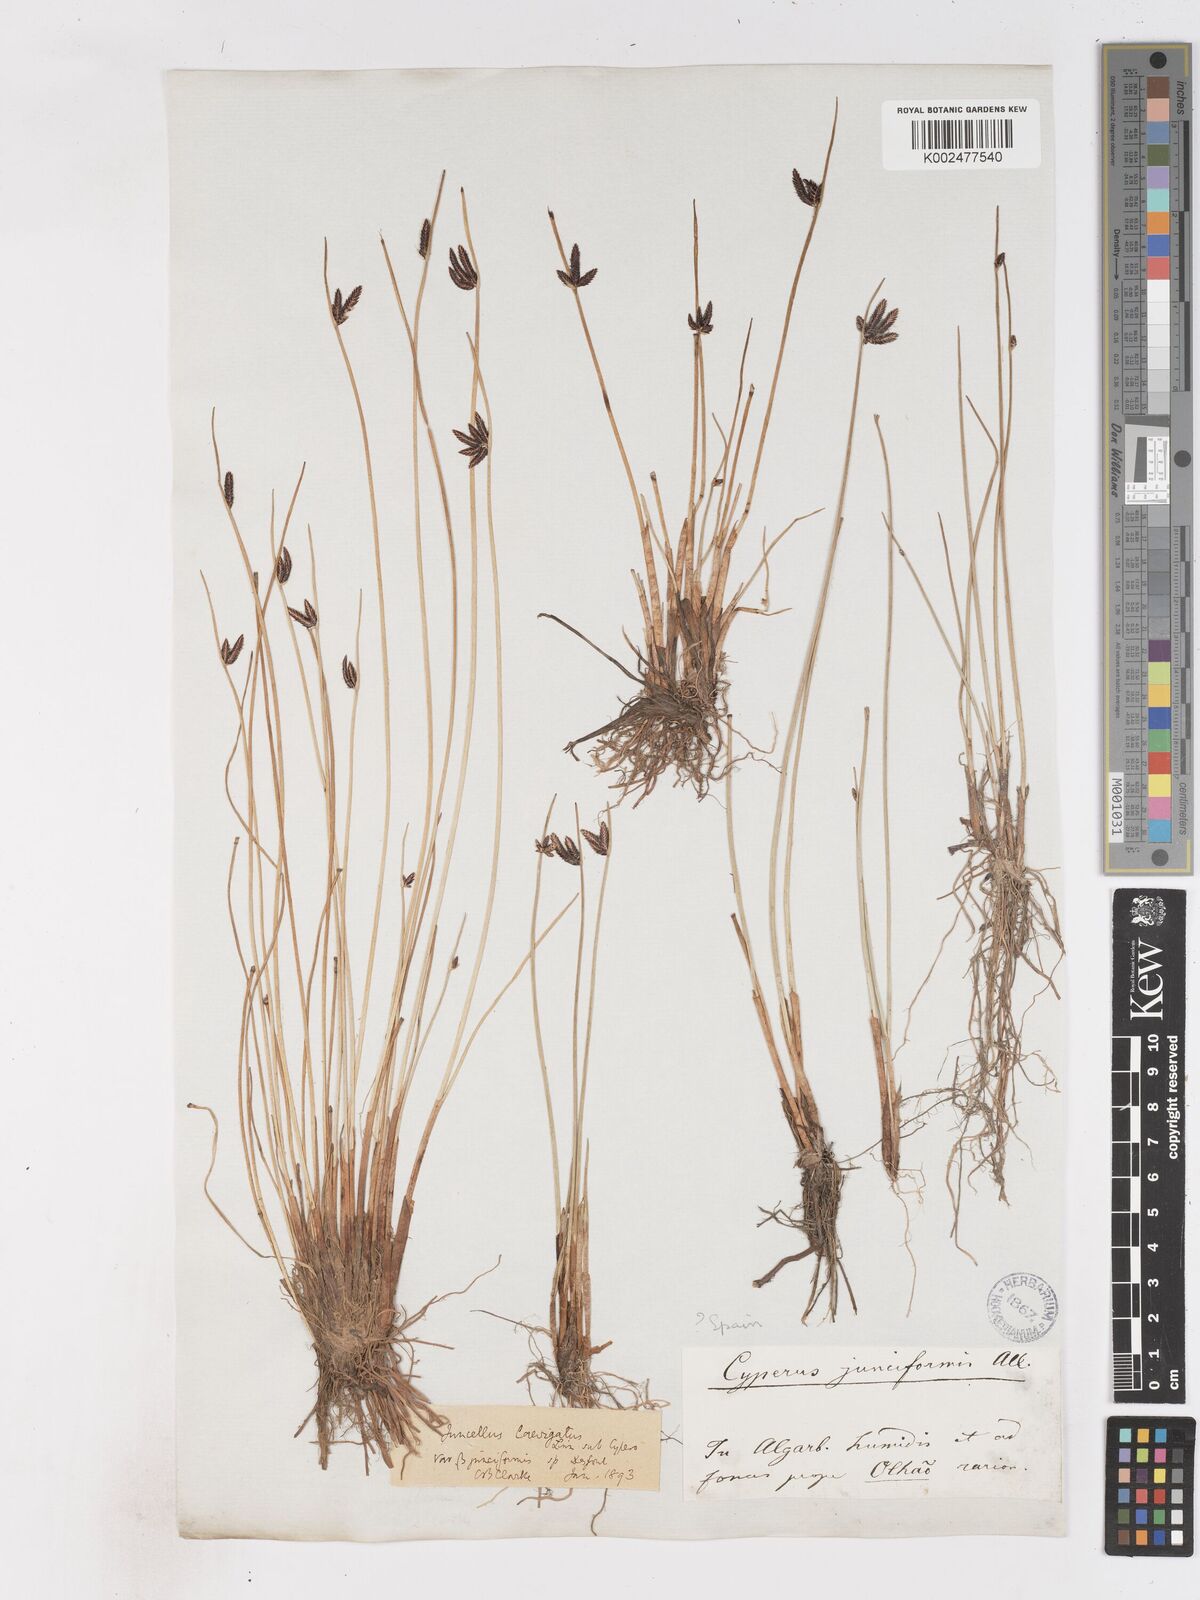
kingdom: Plantae
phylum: Tracheophyta
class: Liliopsida
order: Poales
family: Cyperaceae
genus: Cyperus
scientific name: Cyperus laevigatus
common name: Smooth flat sedge
